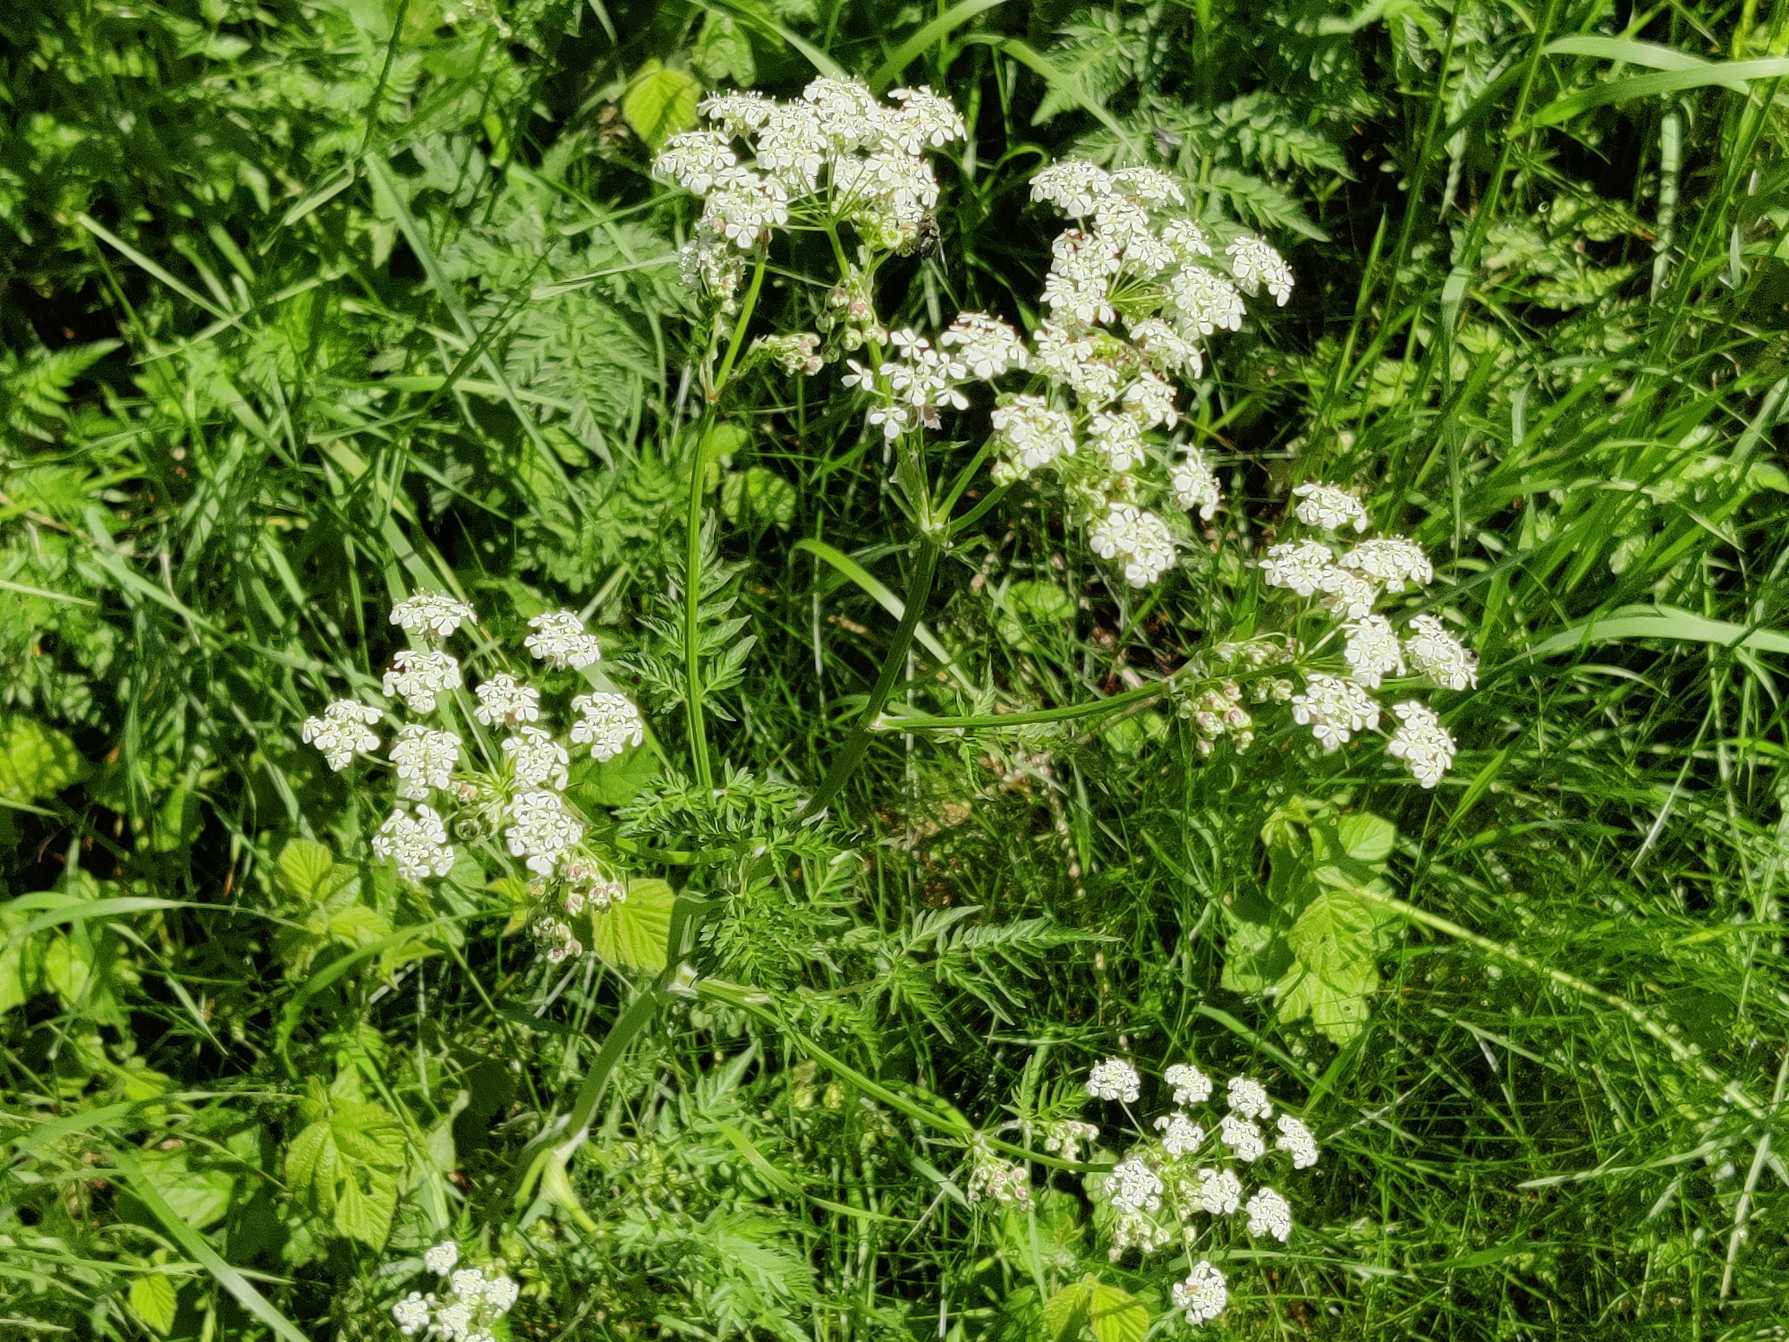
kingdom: Plantae
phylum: Tracheophyta
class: Magnoliopsida
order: Apiales
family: Apiaceae
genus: Anthriscus
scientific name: Anthriscus sylvestris
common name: Vild kørvel
